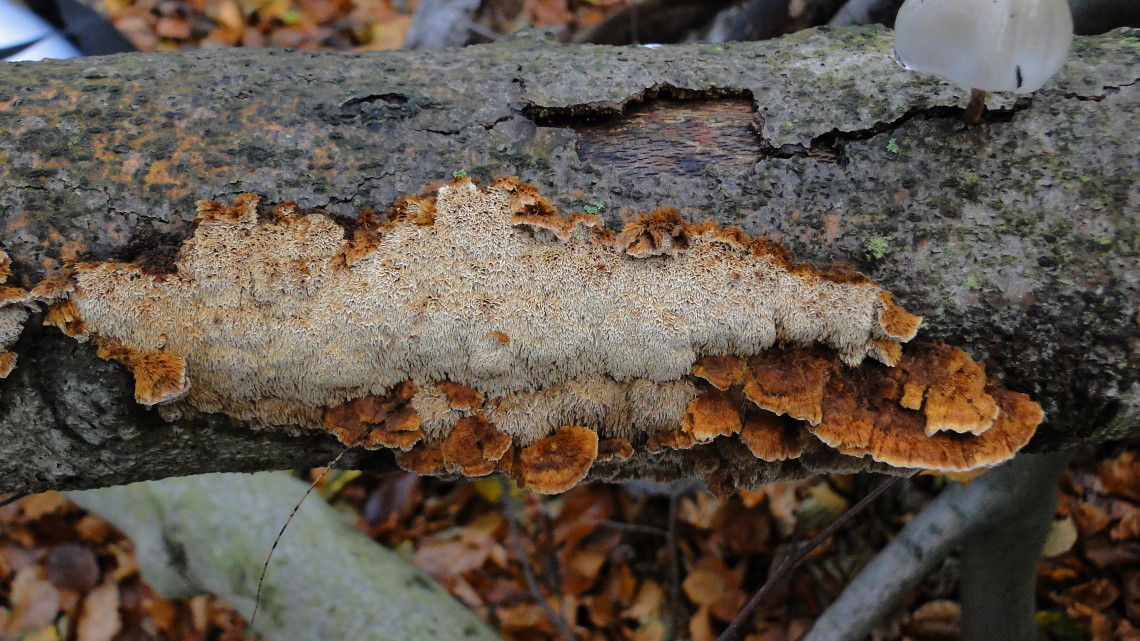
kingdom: Fungi
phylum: Basidiomycota
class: Agaricomycetes
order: Hymenochaetales
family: Hymenochaetaceae
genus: Mensularia
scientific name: Mensularia nodulosa
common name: bøge-spejlporesvamp
